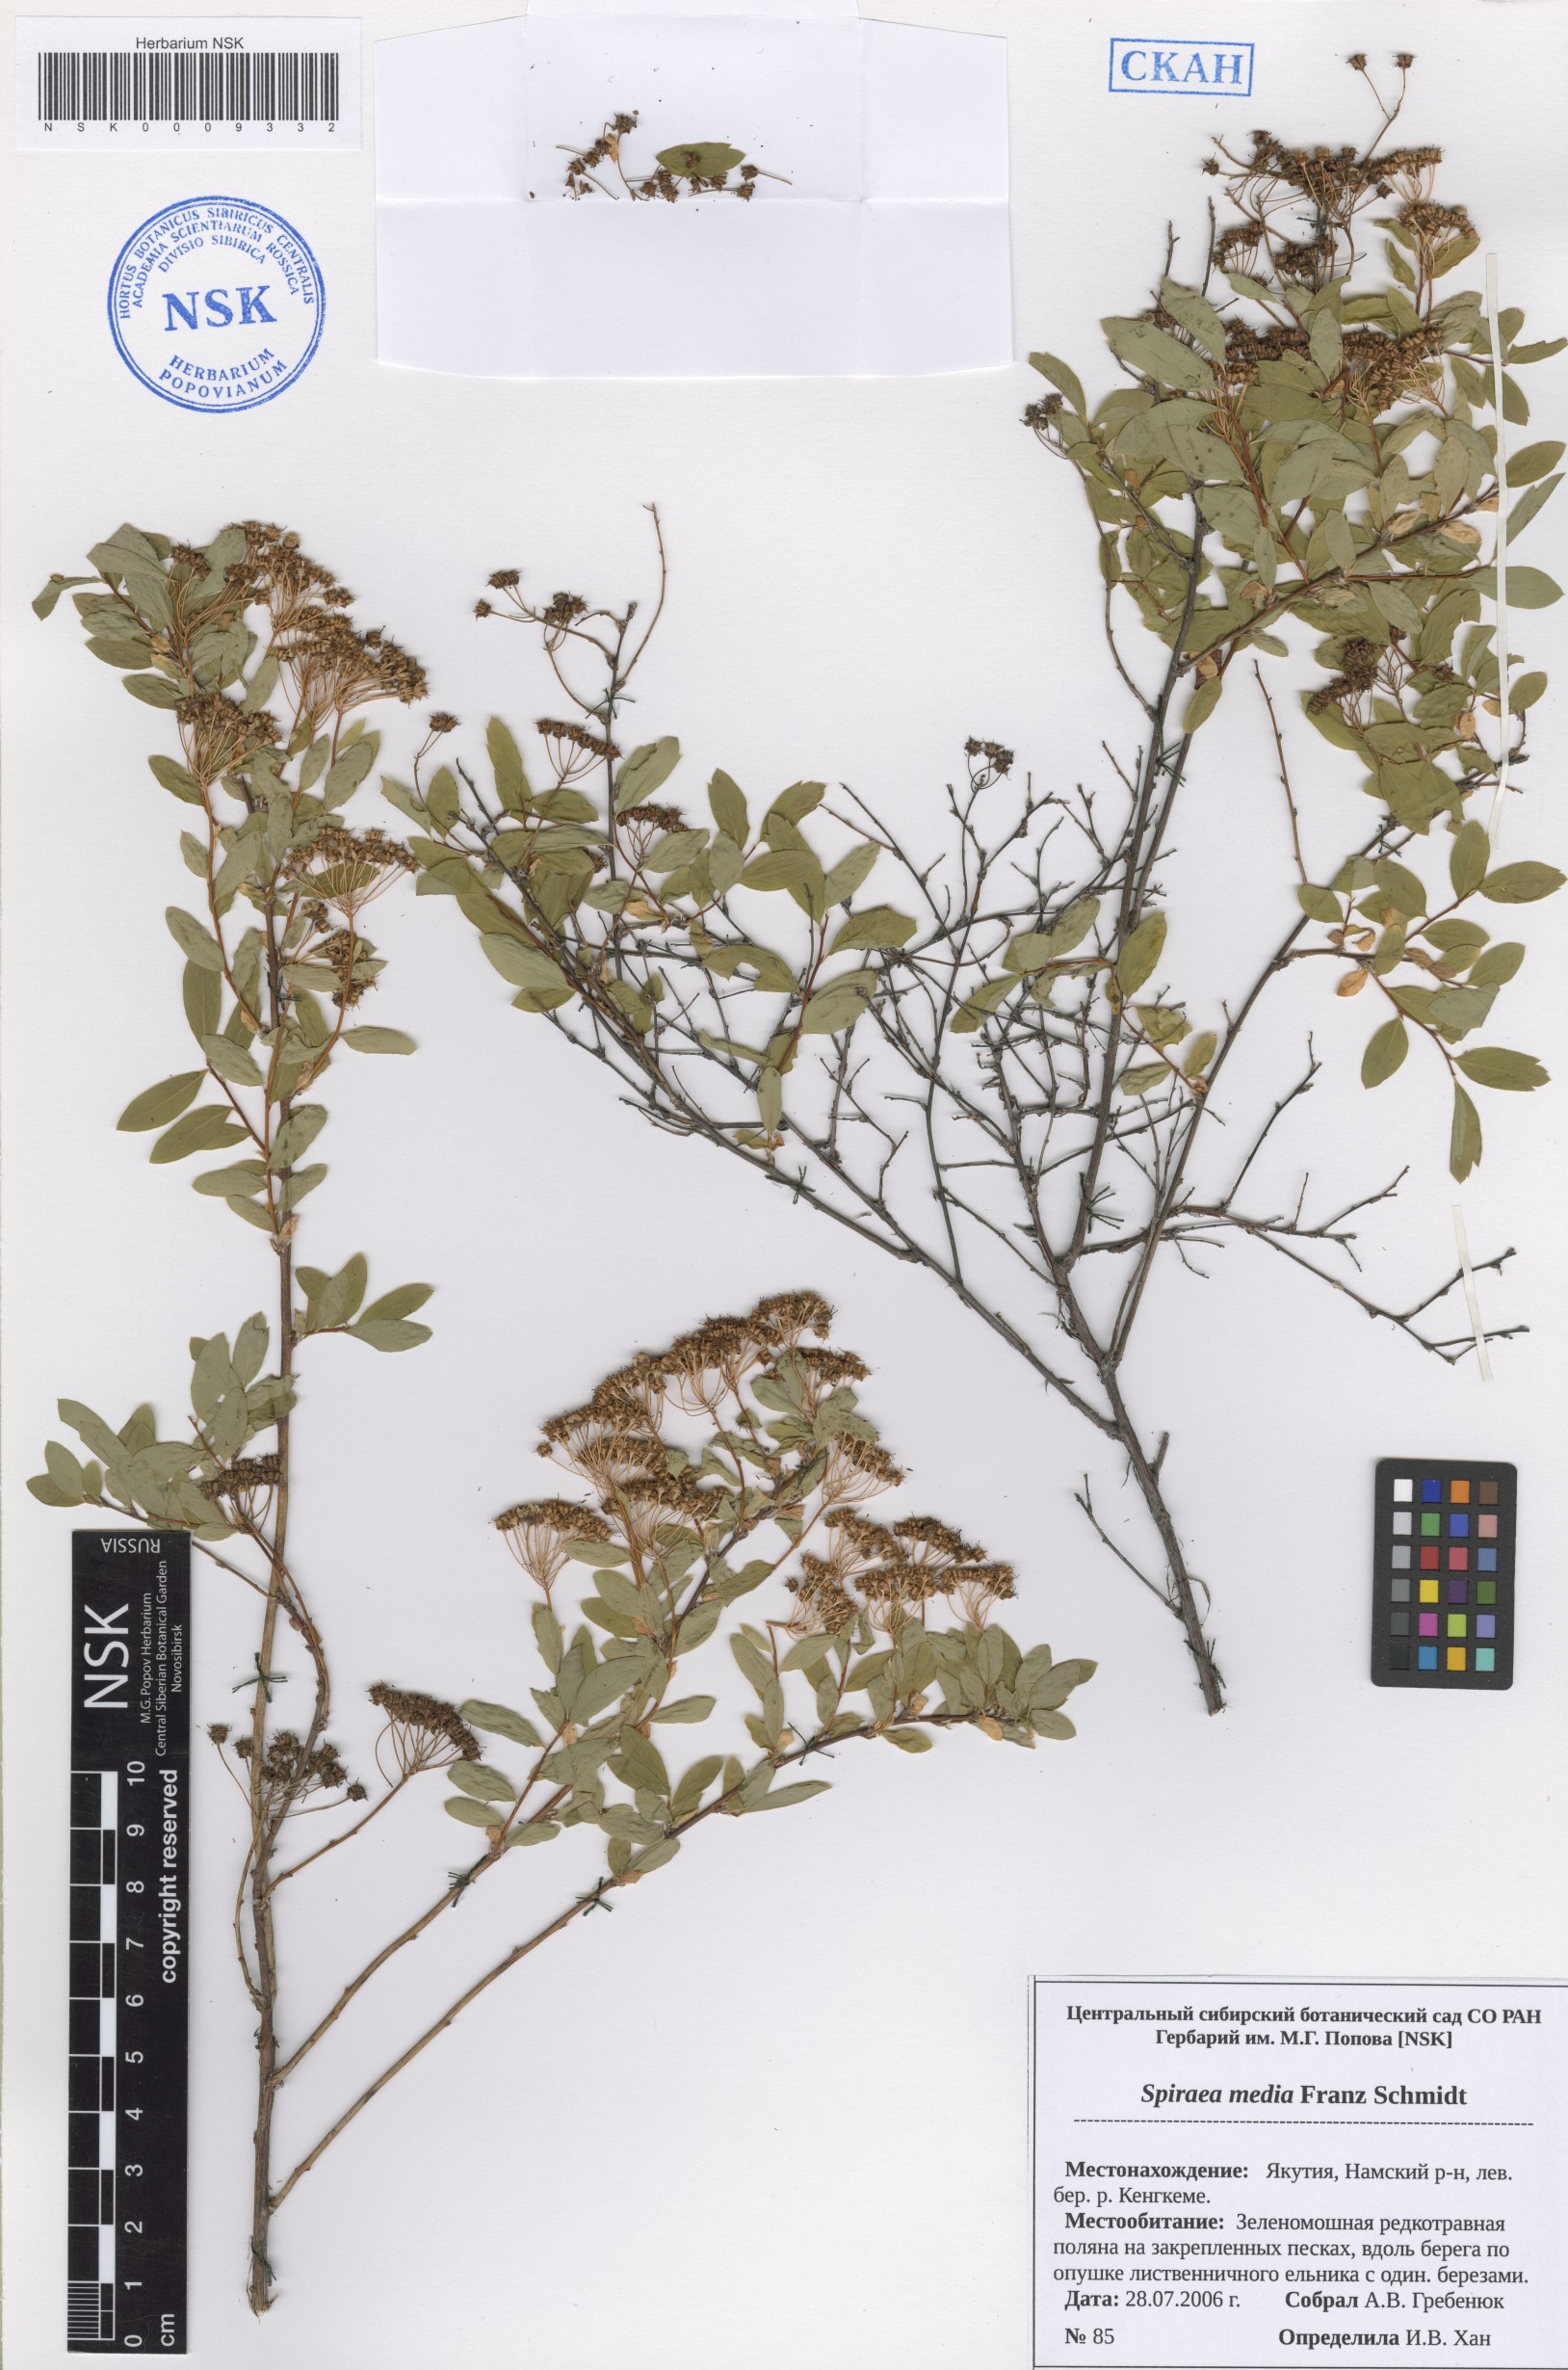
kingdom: Plantae
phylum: Tracheophyta
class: Magnoliopsida
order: Rosales
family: Rosaceae
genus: Spiraea
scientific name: Spiraea media
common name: Russian spiraea
